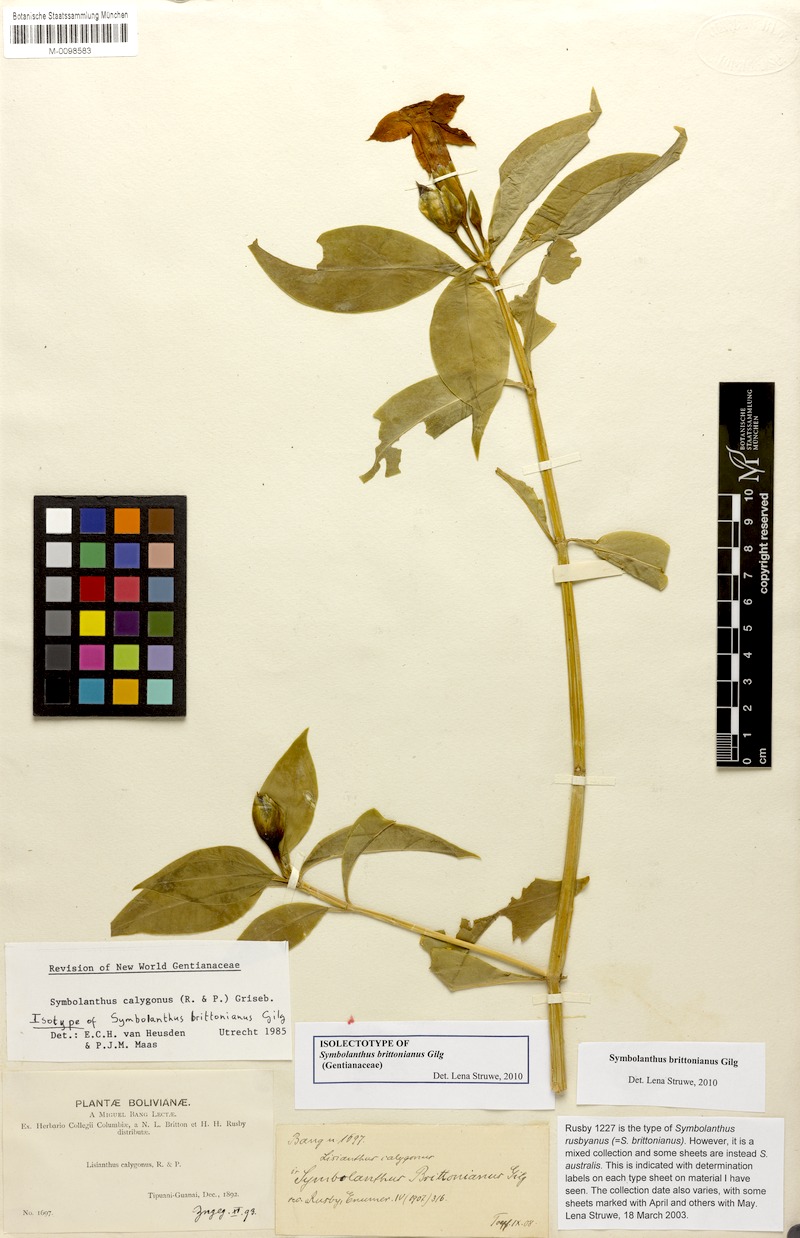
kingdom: Plantae
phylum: Tracheophyta
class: Magnoliopsida
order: Gentianales
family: Gentianaceae
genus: Symbolanthus
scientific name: Symbolanthus brittonianus
